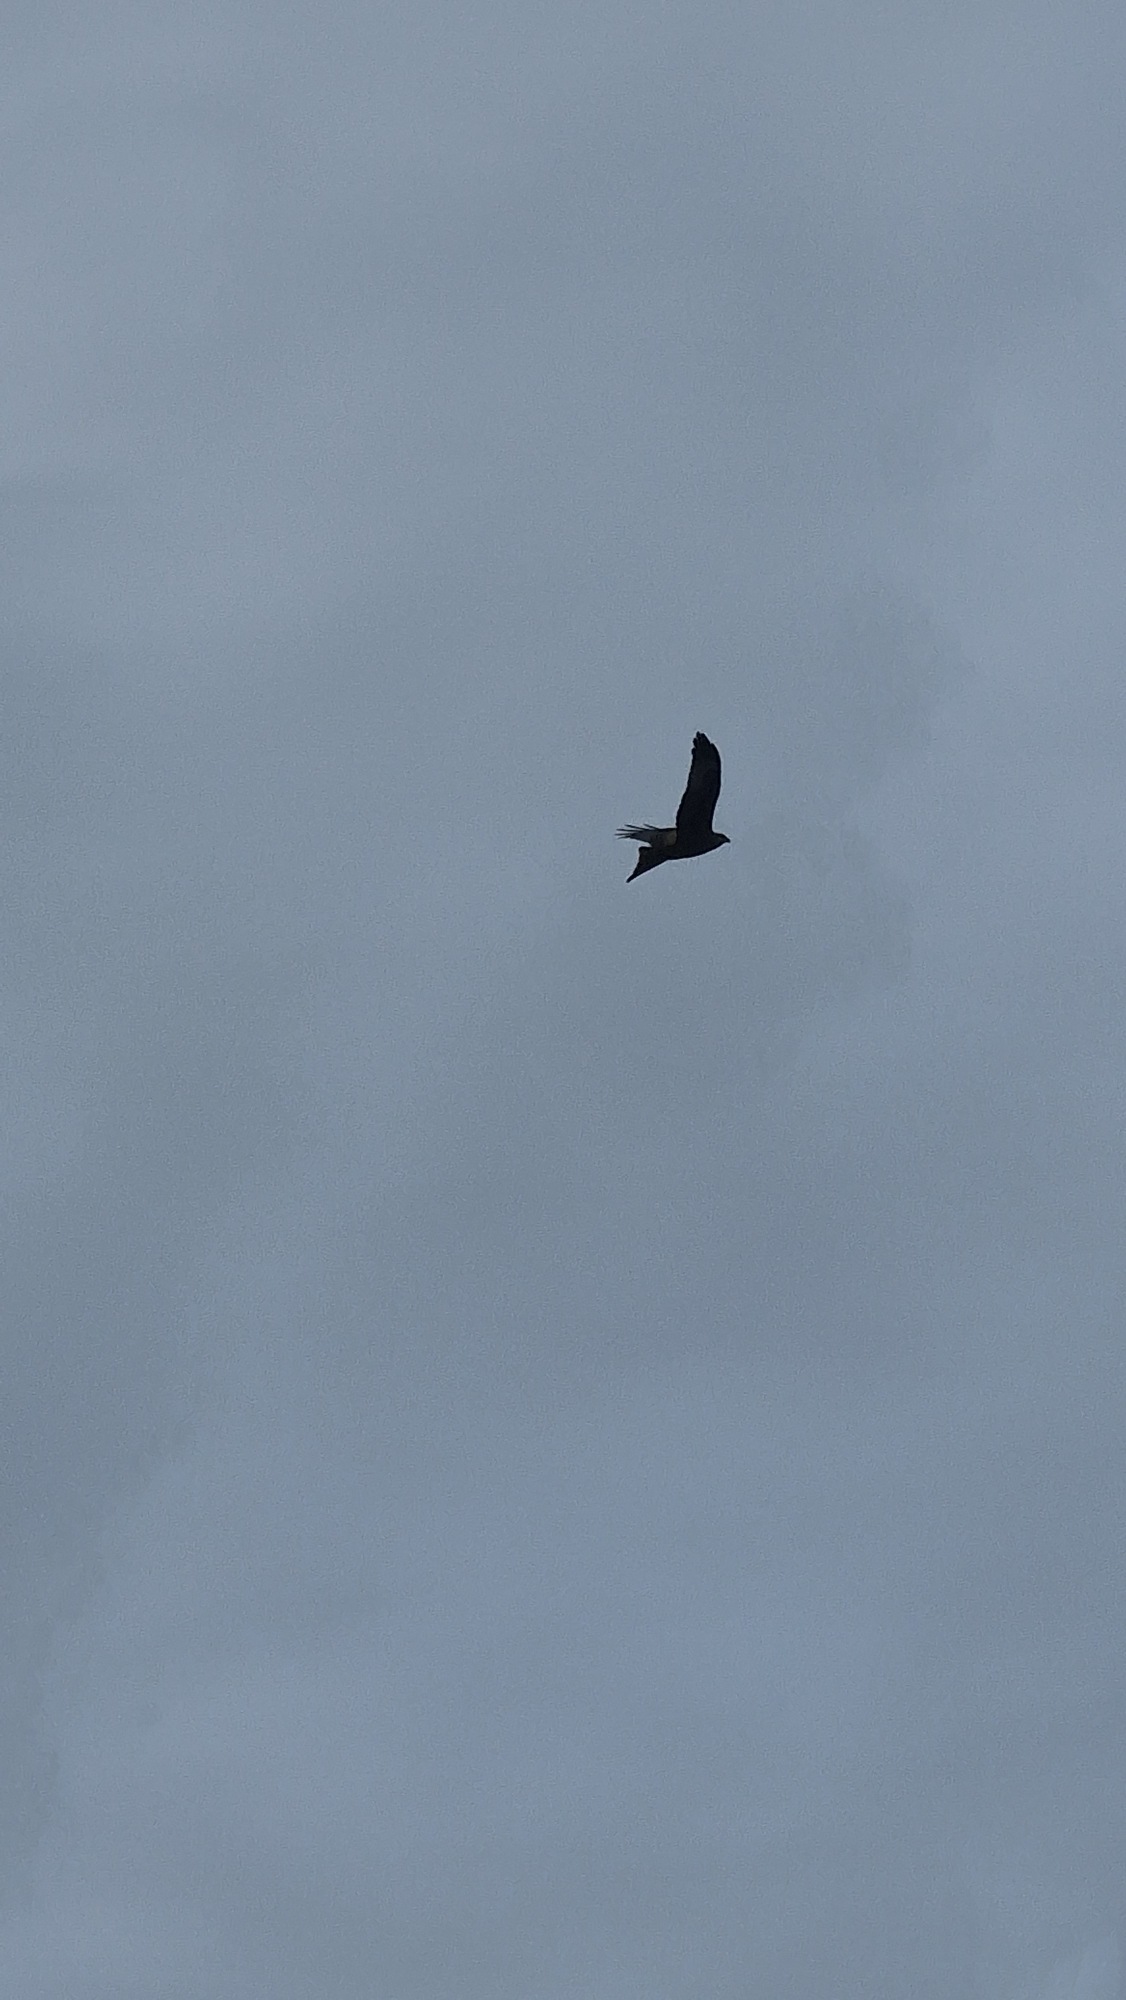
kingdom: Animalia
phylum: Chordata
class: Aves
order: Accipitriformes
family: Accipitridae
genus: Milvus
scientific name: Milvus milvus
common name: Rød glente
